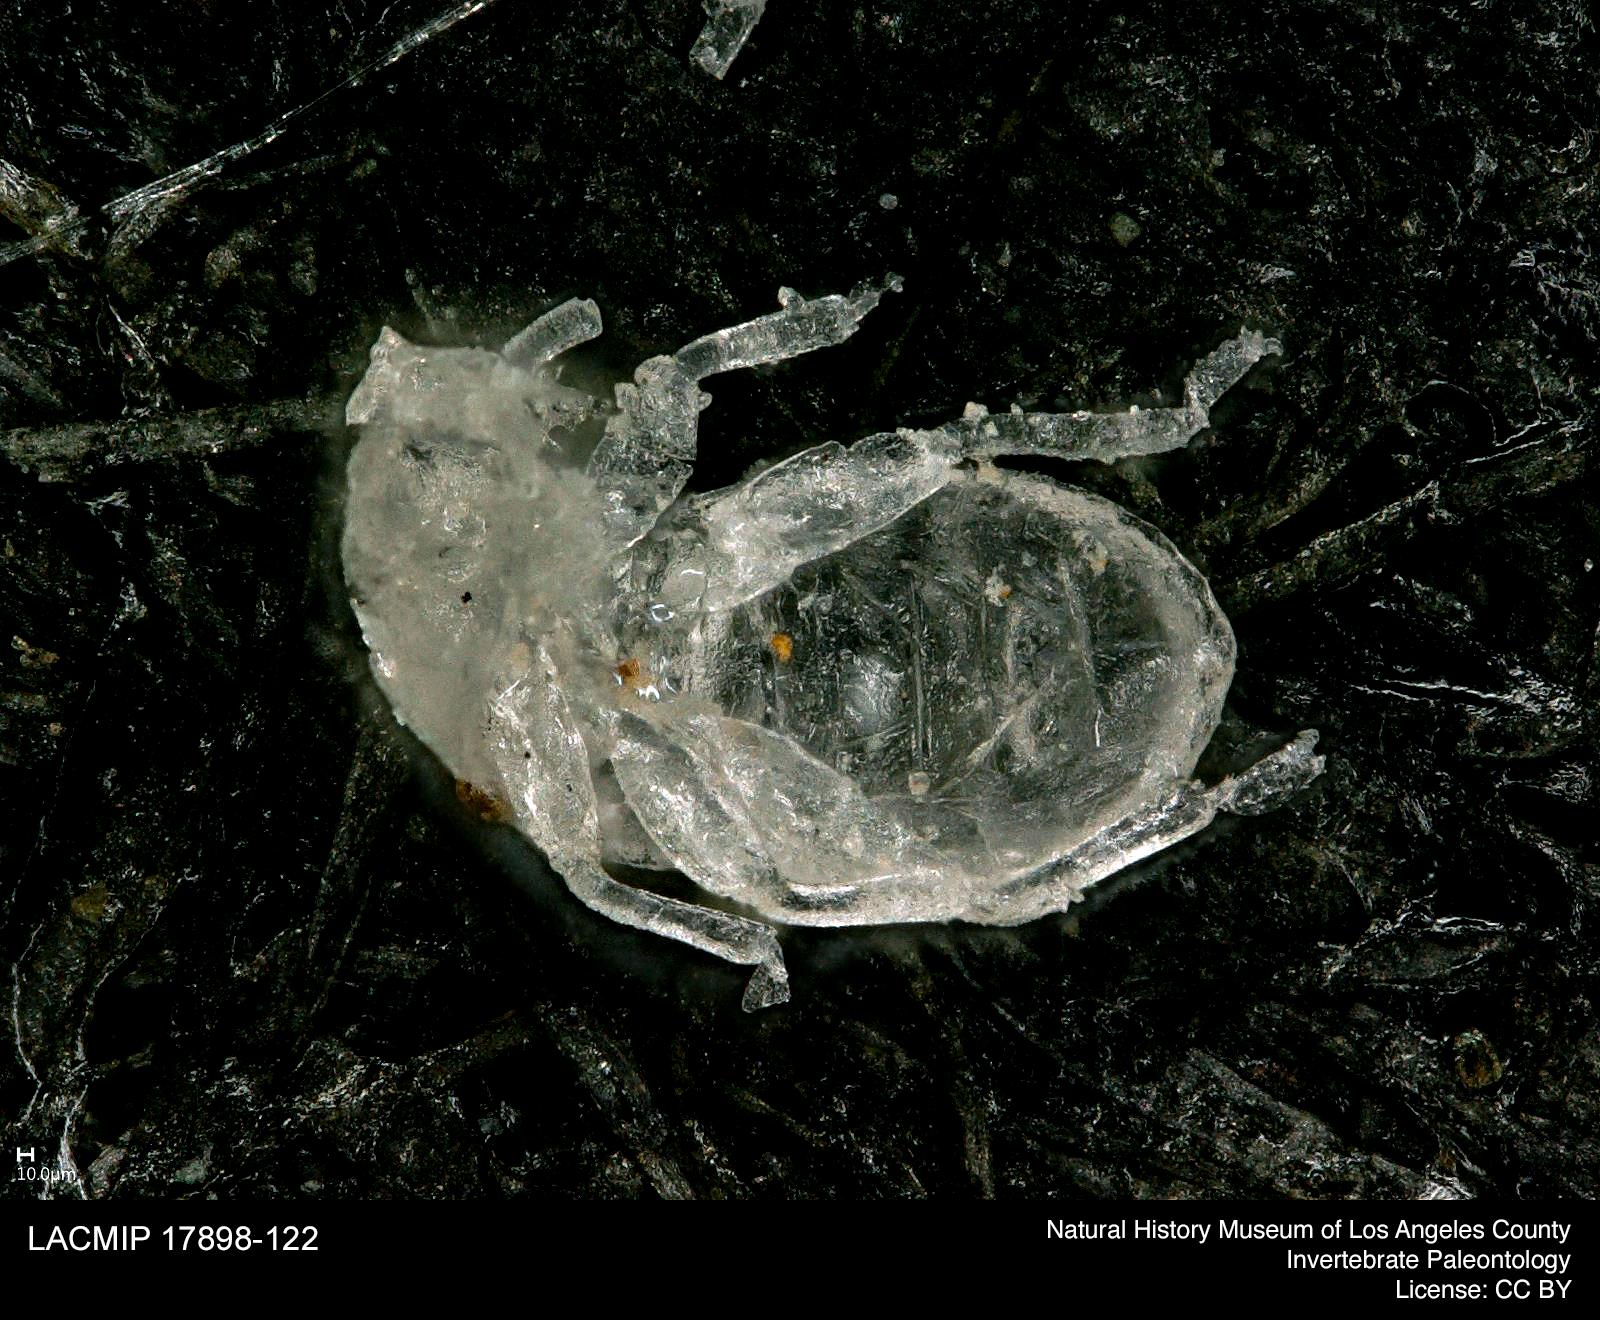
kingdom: Animalia
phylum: Arthropoda
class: Insecta
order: Hemiptera
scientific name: Hemiptera
